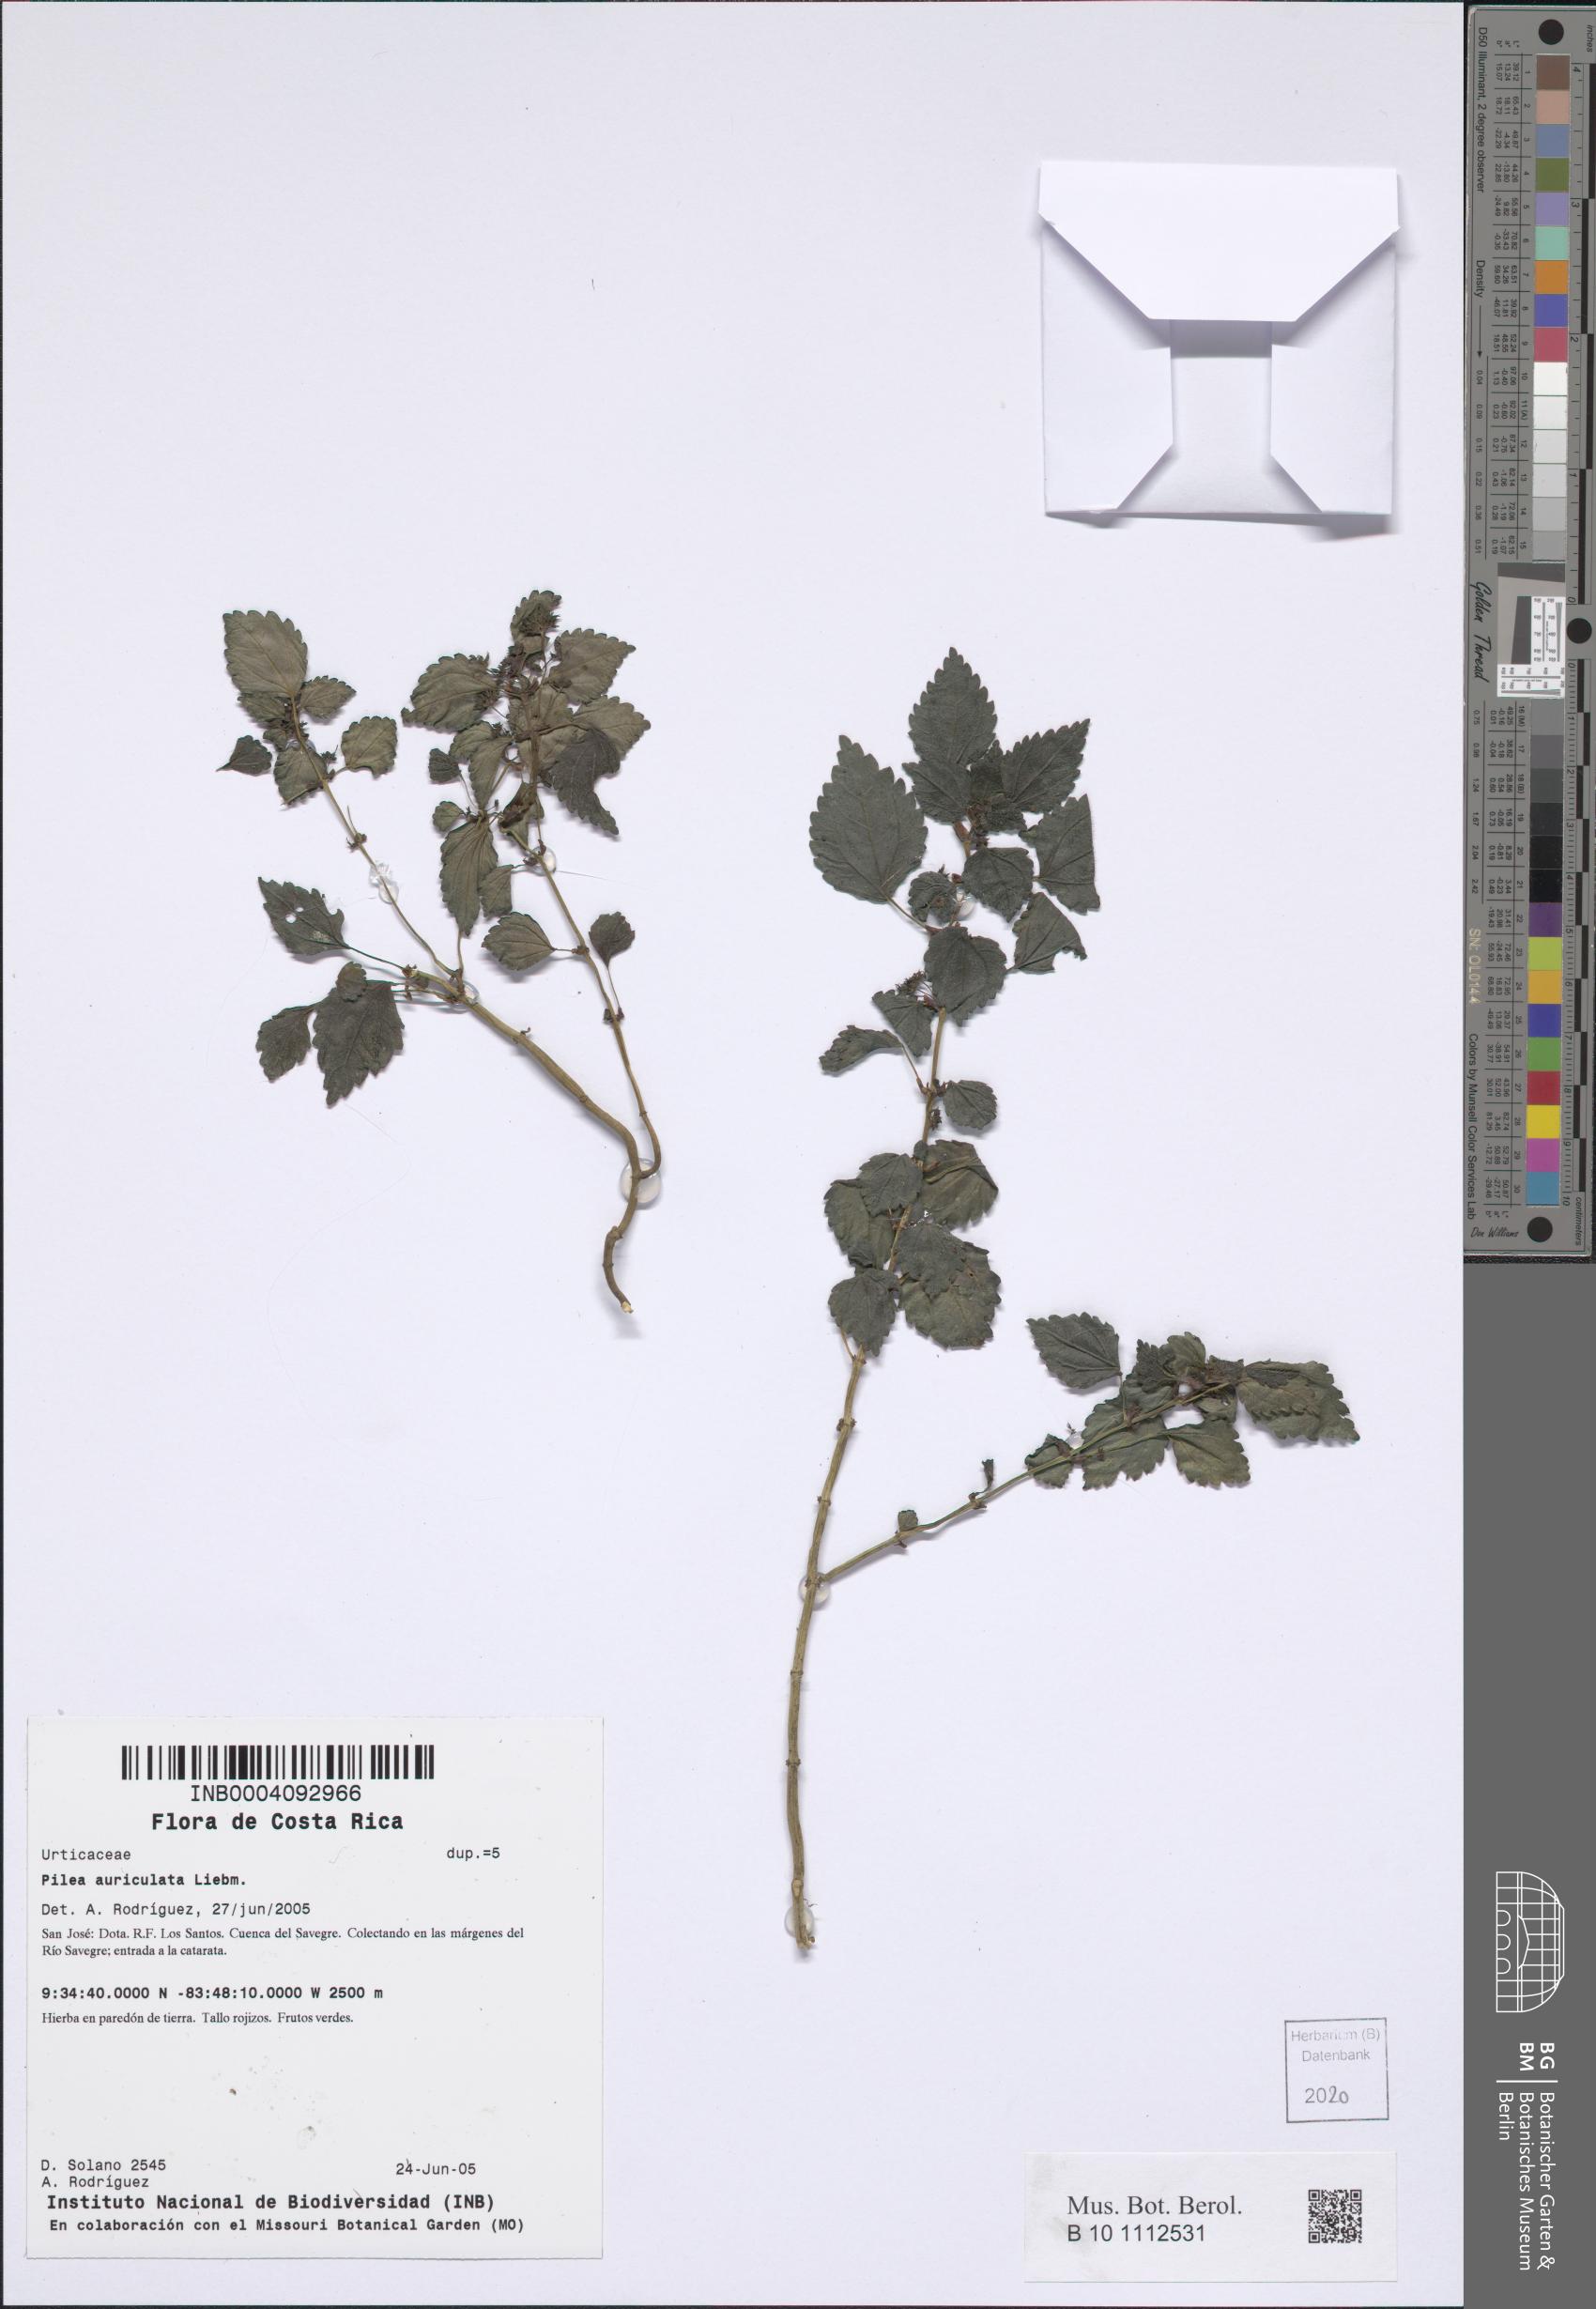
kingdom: Plantae
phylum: Tracheophyta
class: Magnoliopsida
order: Rosales
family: Urticaceae
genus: Pilea
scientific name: Pilea auriculata
